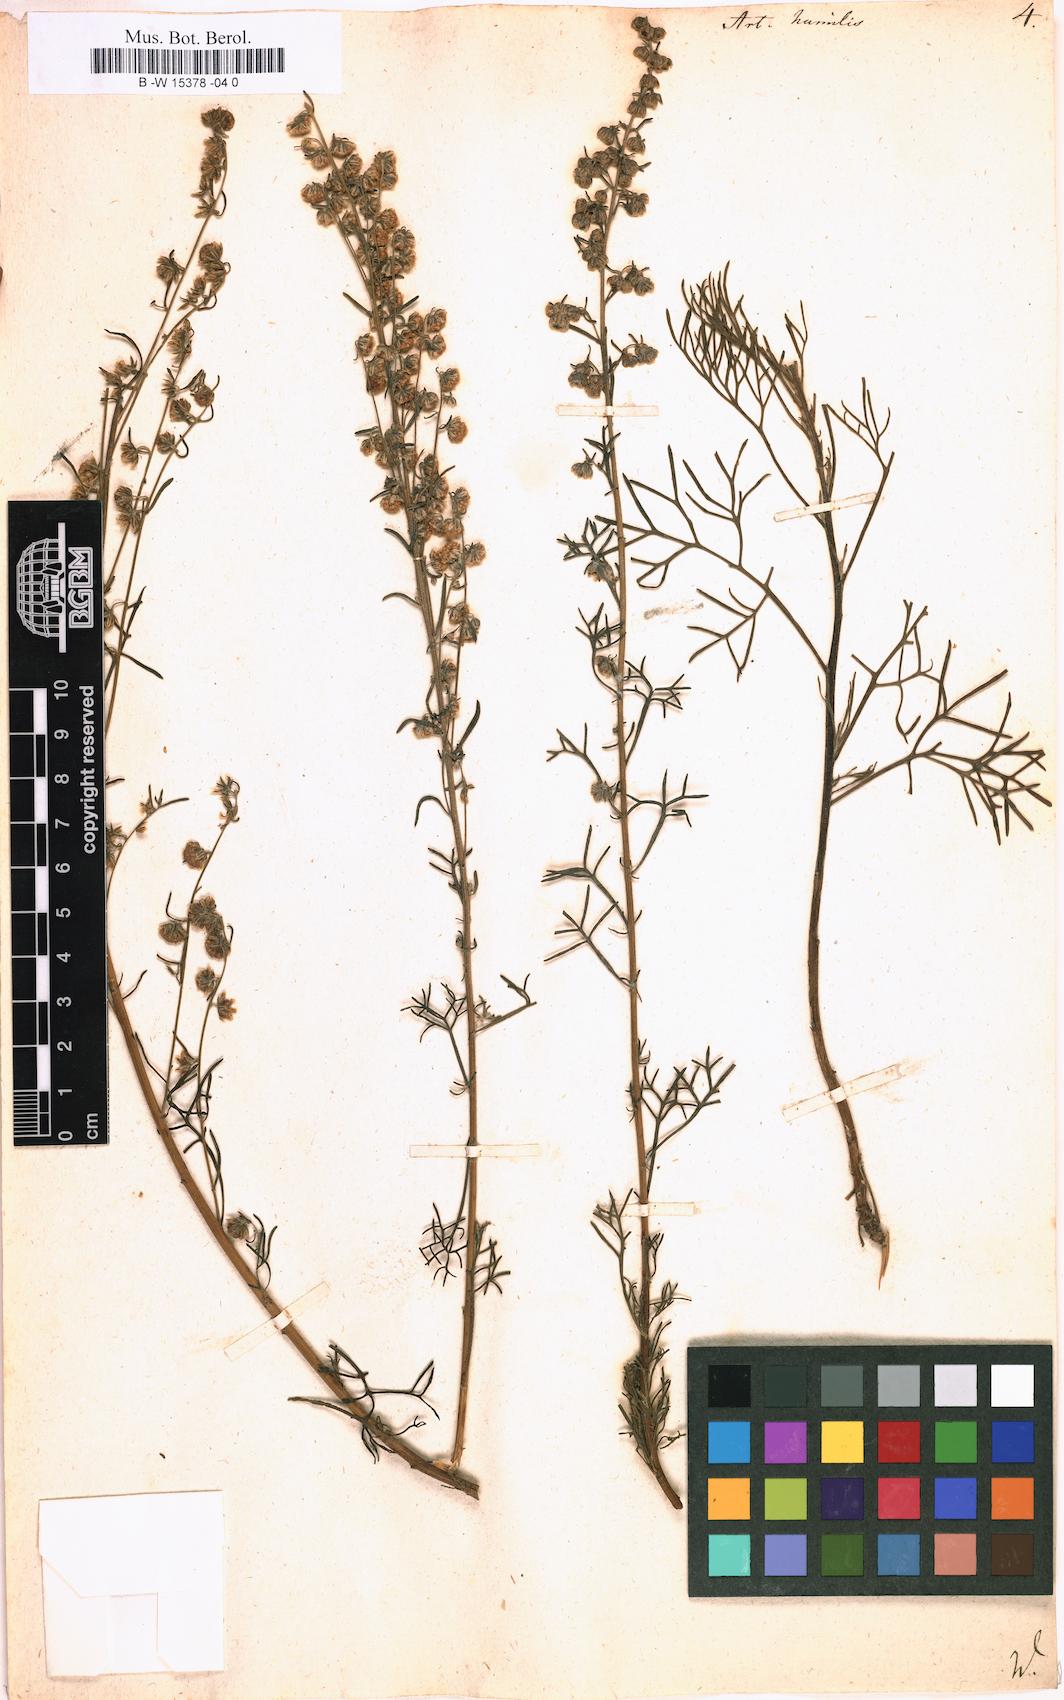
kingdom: Plantae
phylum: Tracheophyta
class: Magnoliopsida
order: Asterales
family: Asteraceae
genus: Artemisia
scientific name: Artemisia abrotanum
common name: Southernwood
